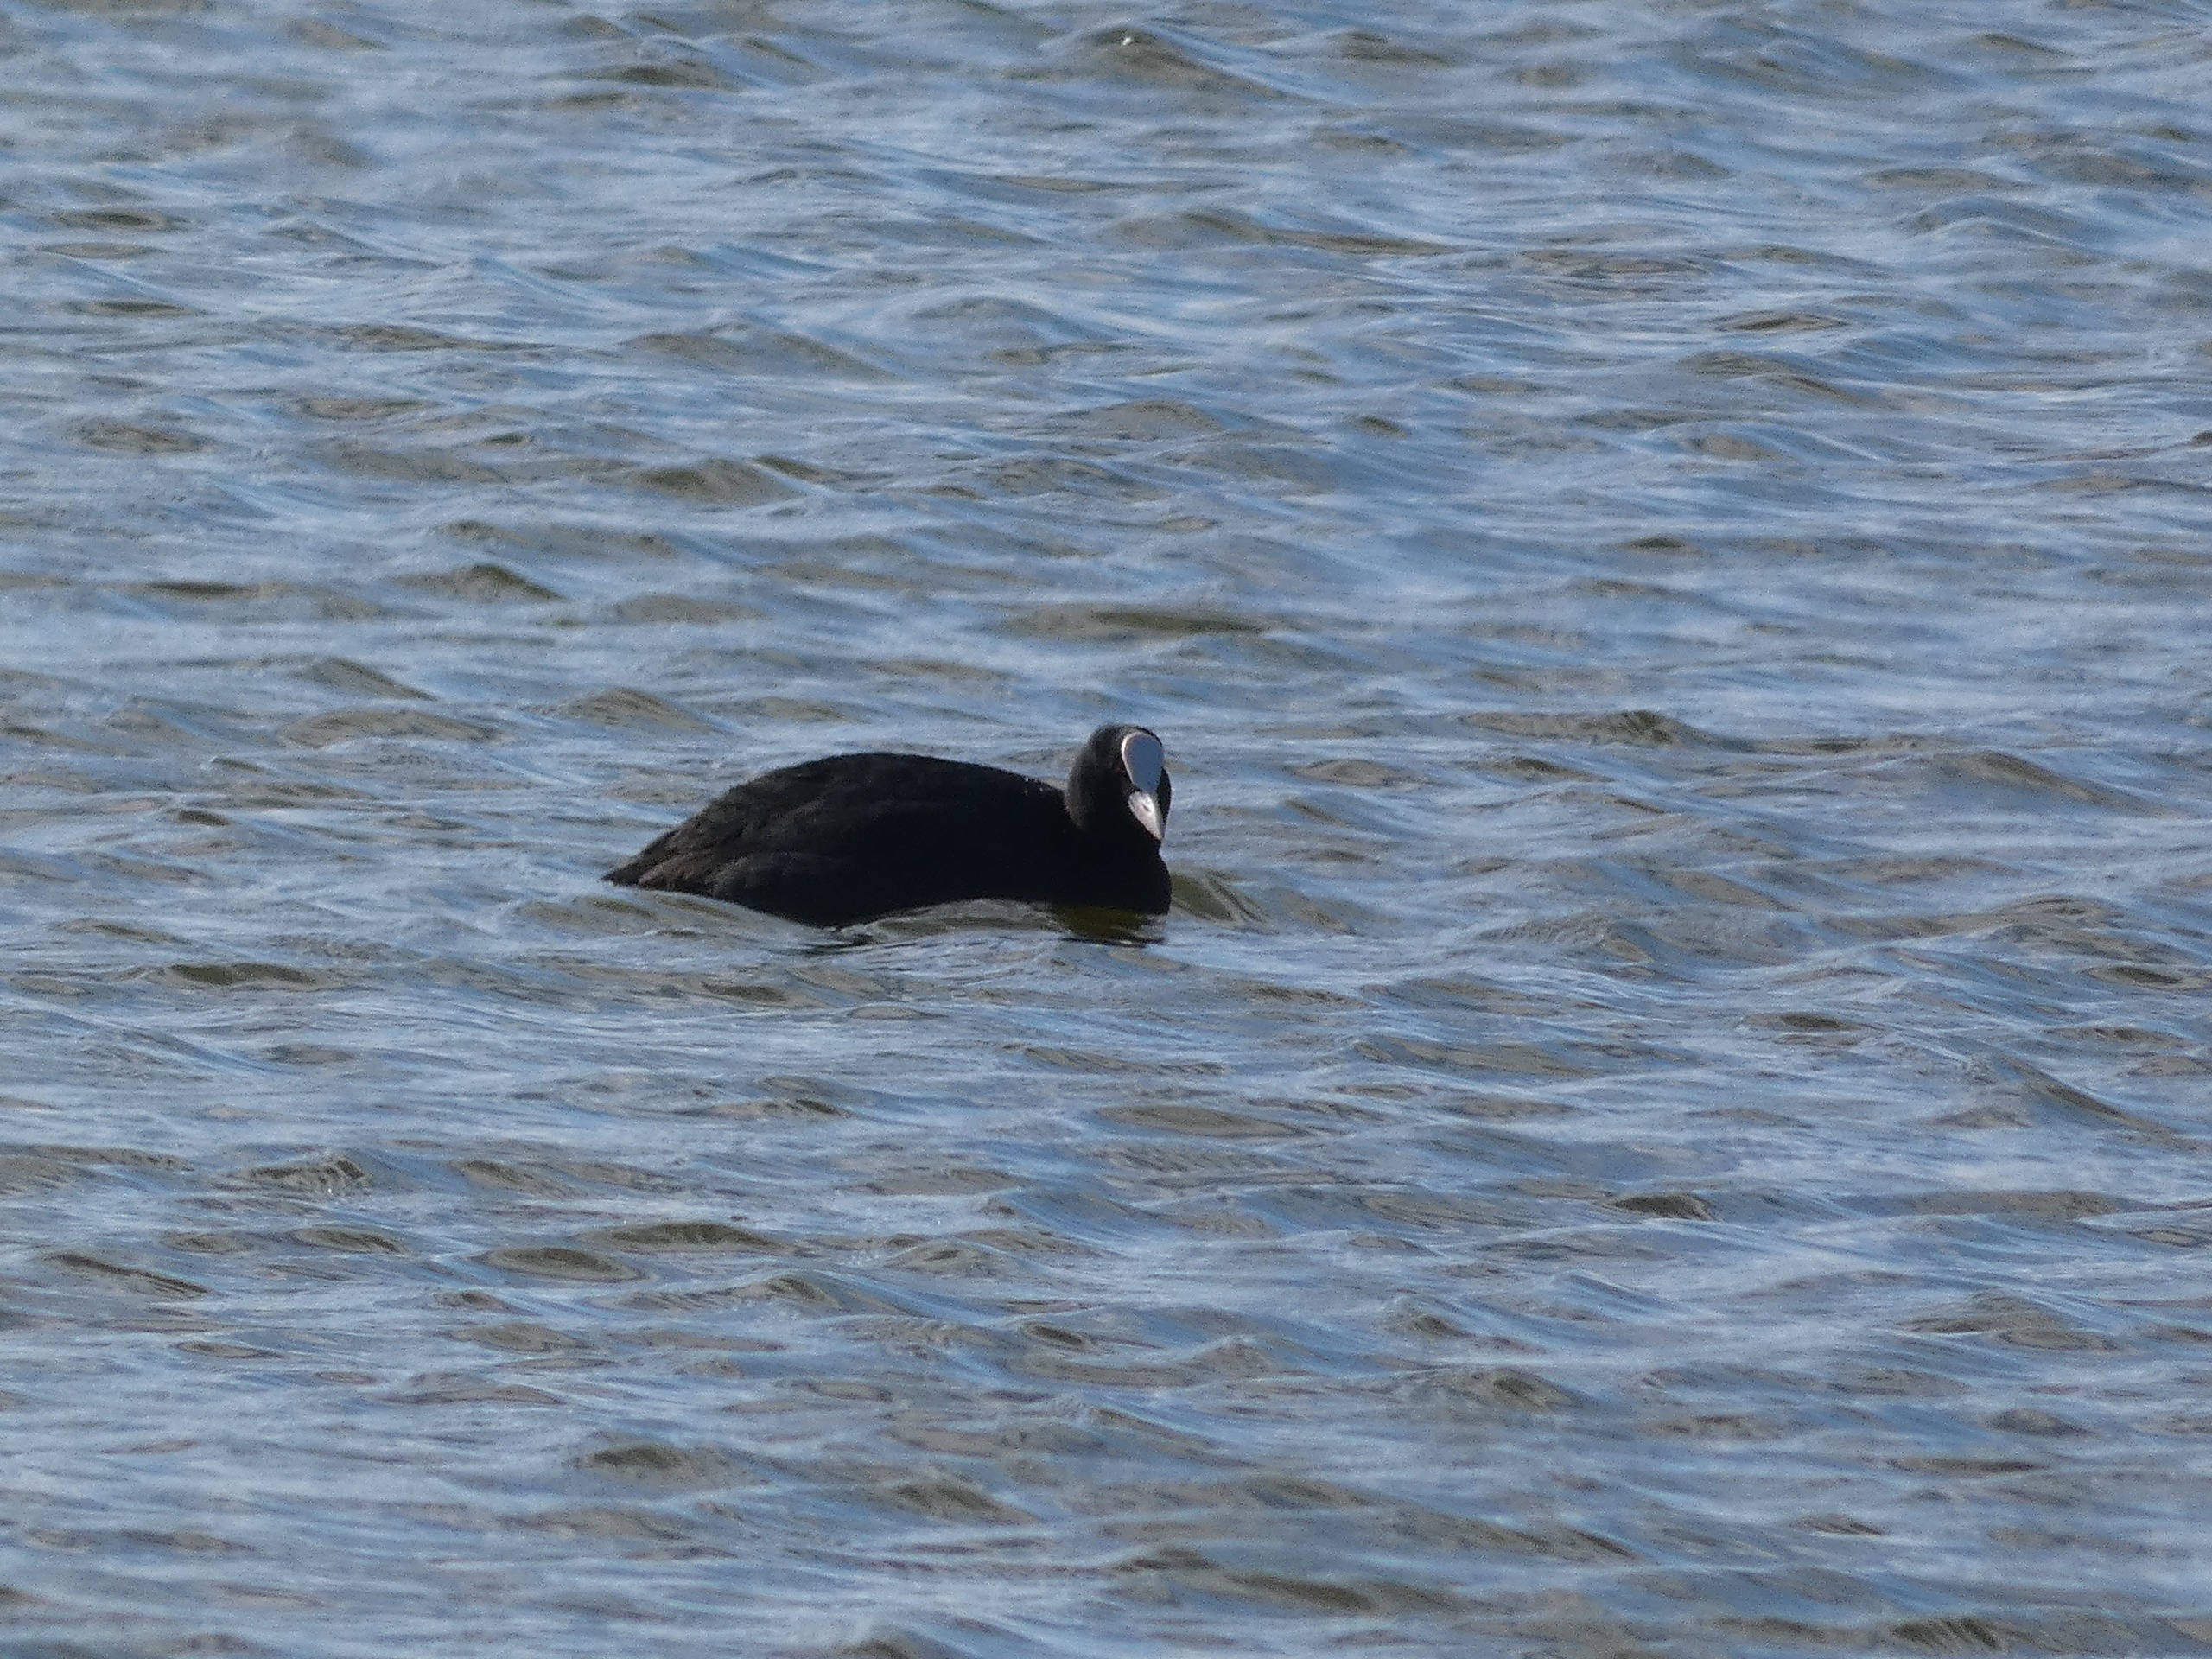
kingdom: Animalia
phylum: Chordata
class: Aves
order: Gruiformes
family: Rallidae
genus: Fulica
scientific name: Fulica atra
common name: Blishøne
